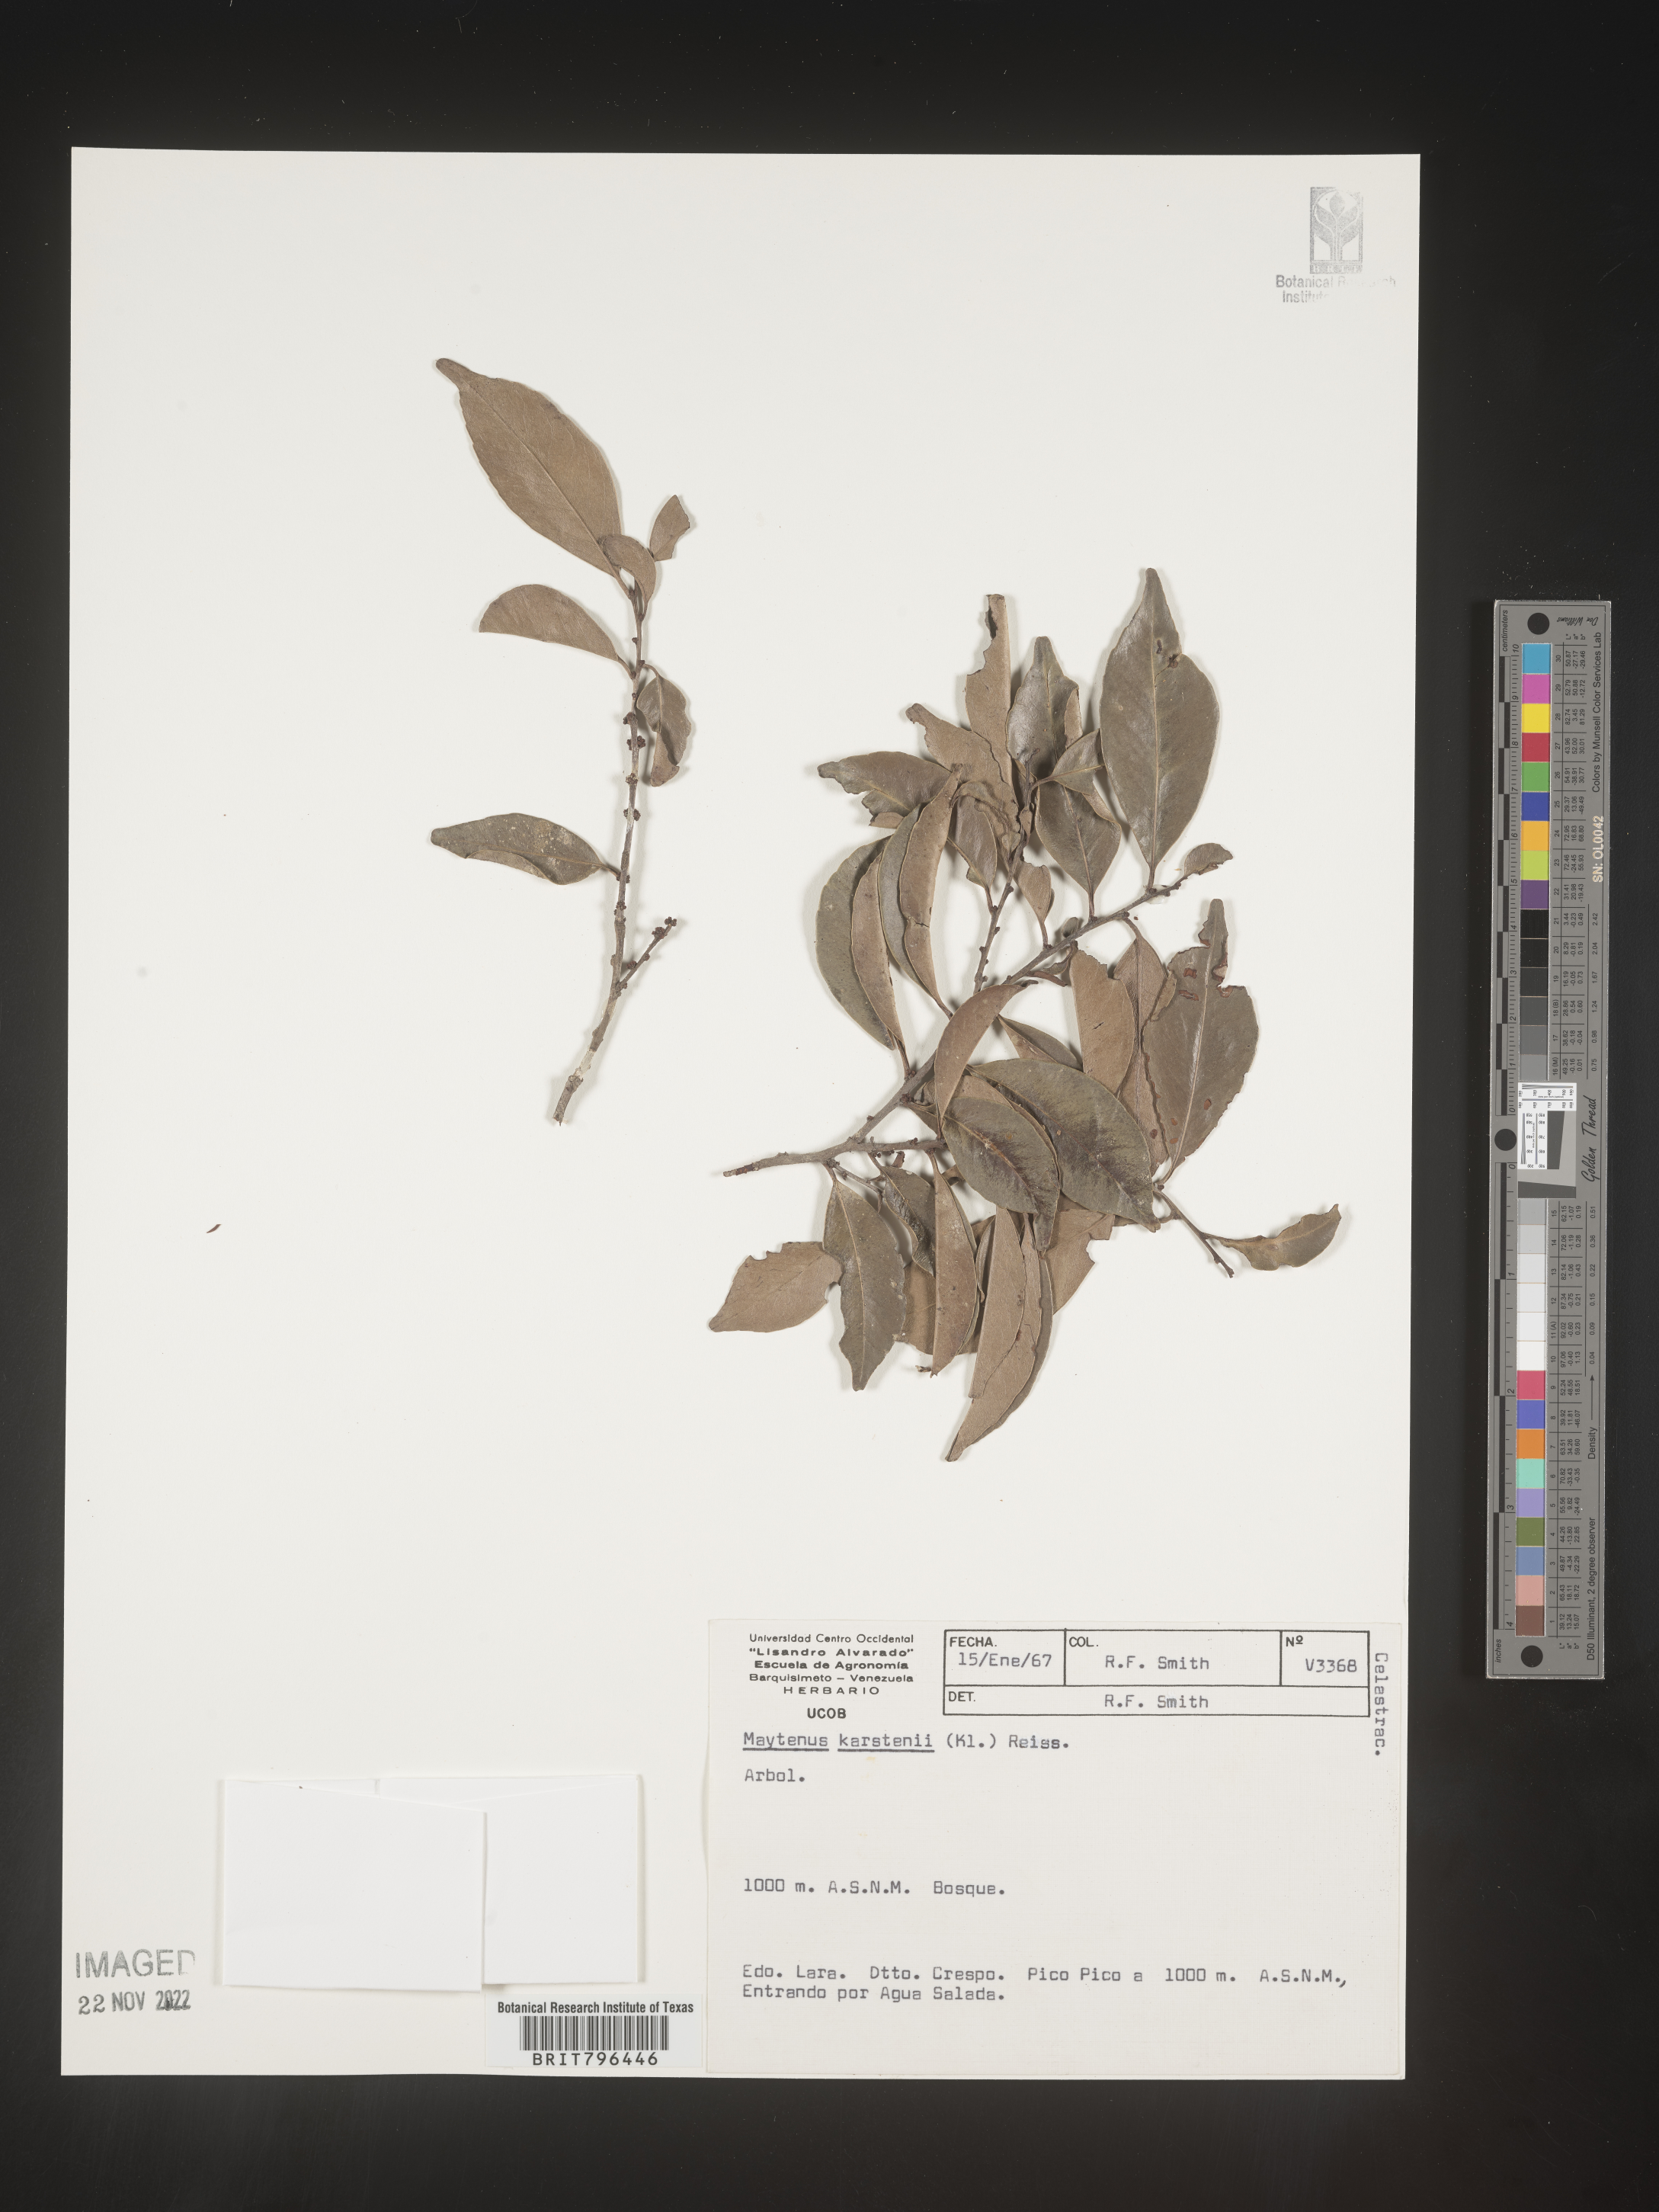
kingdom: Plantae
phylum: Tracheophyta
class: Magnoliopsida
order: Celastrales
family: Celastraceae
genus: Maytenus
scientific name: Maytenus
